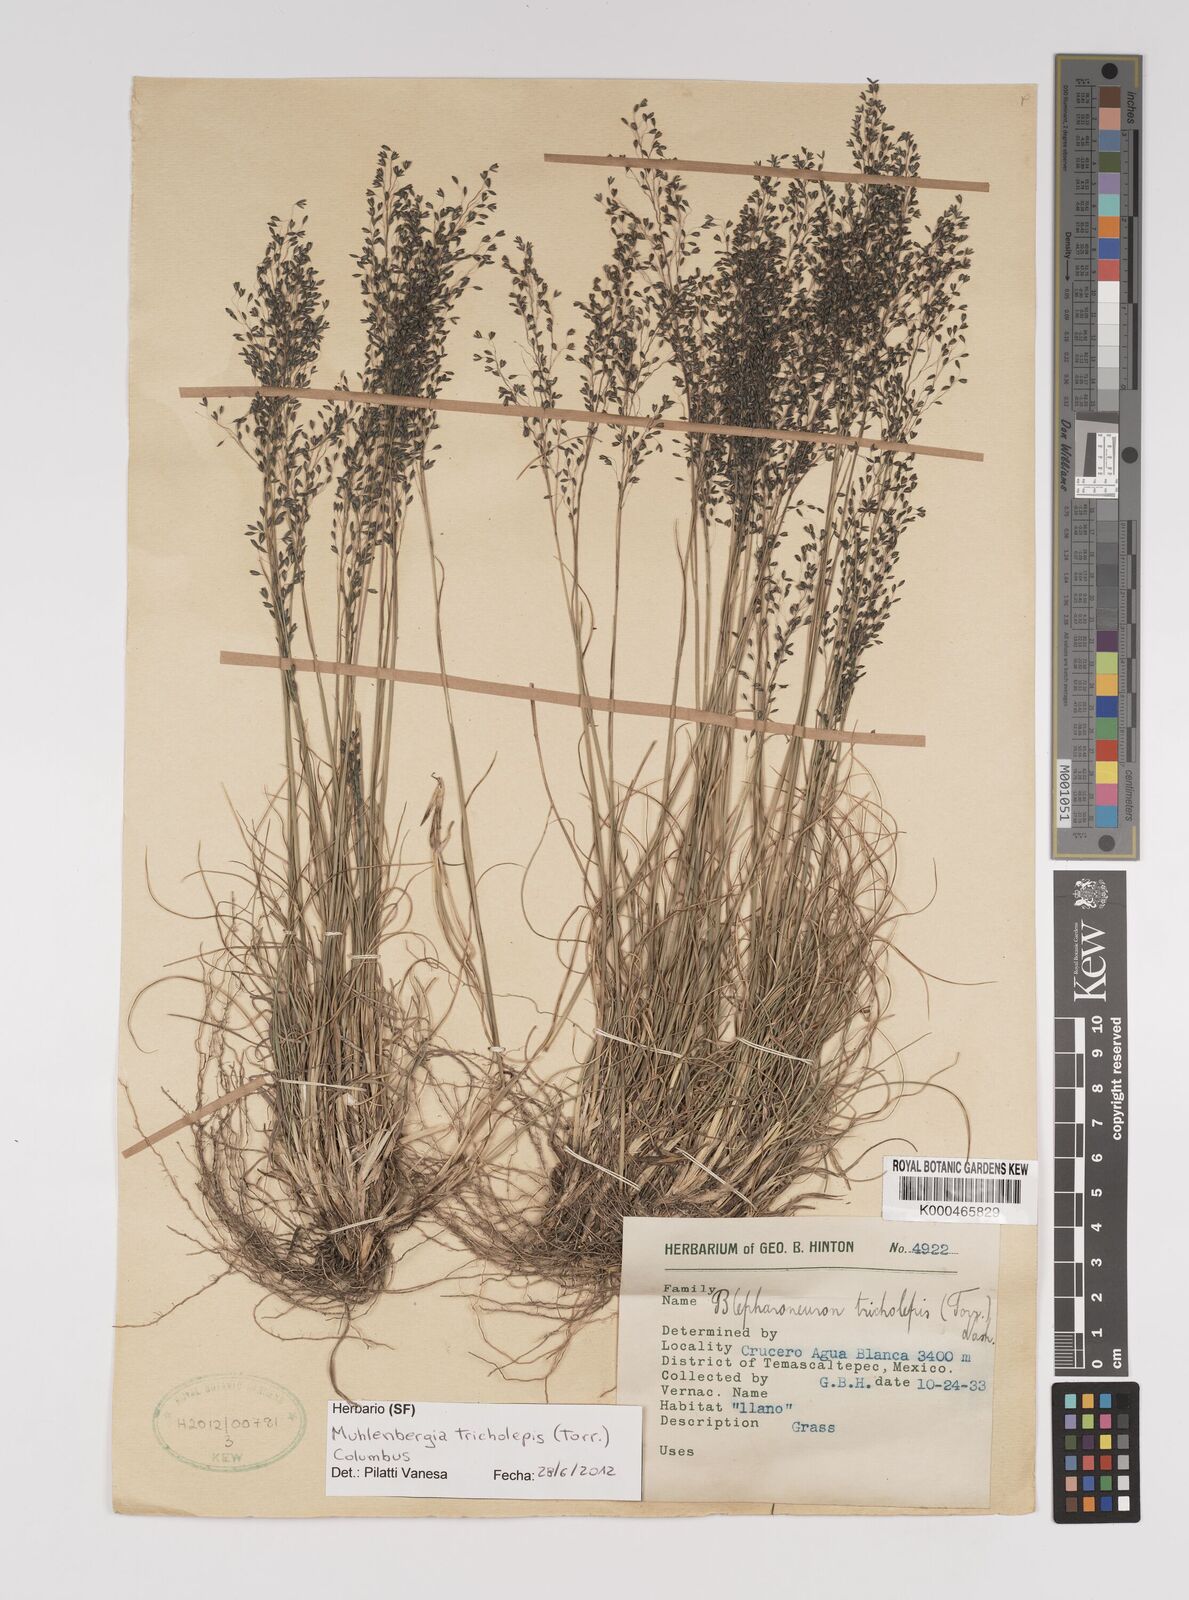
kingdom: Plantae
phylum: Tracheophyta
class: Liliopsida
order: Poales
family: Poaceae
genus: Muhlenbergia
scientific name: Muhlenbergia tricholepis
